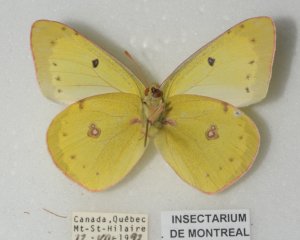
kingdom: Animalia
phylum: Arthropoda
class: Insecta
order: Lepidoptera
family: Pieridae
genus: Colias
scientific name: Colias philodice
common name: Clouded Sulphur
